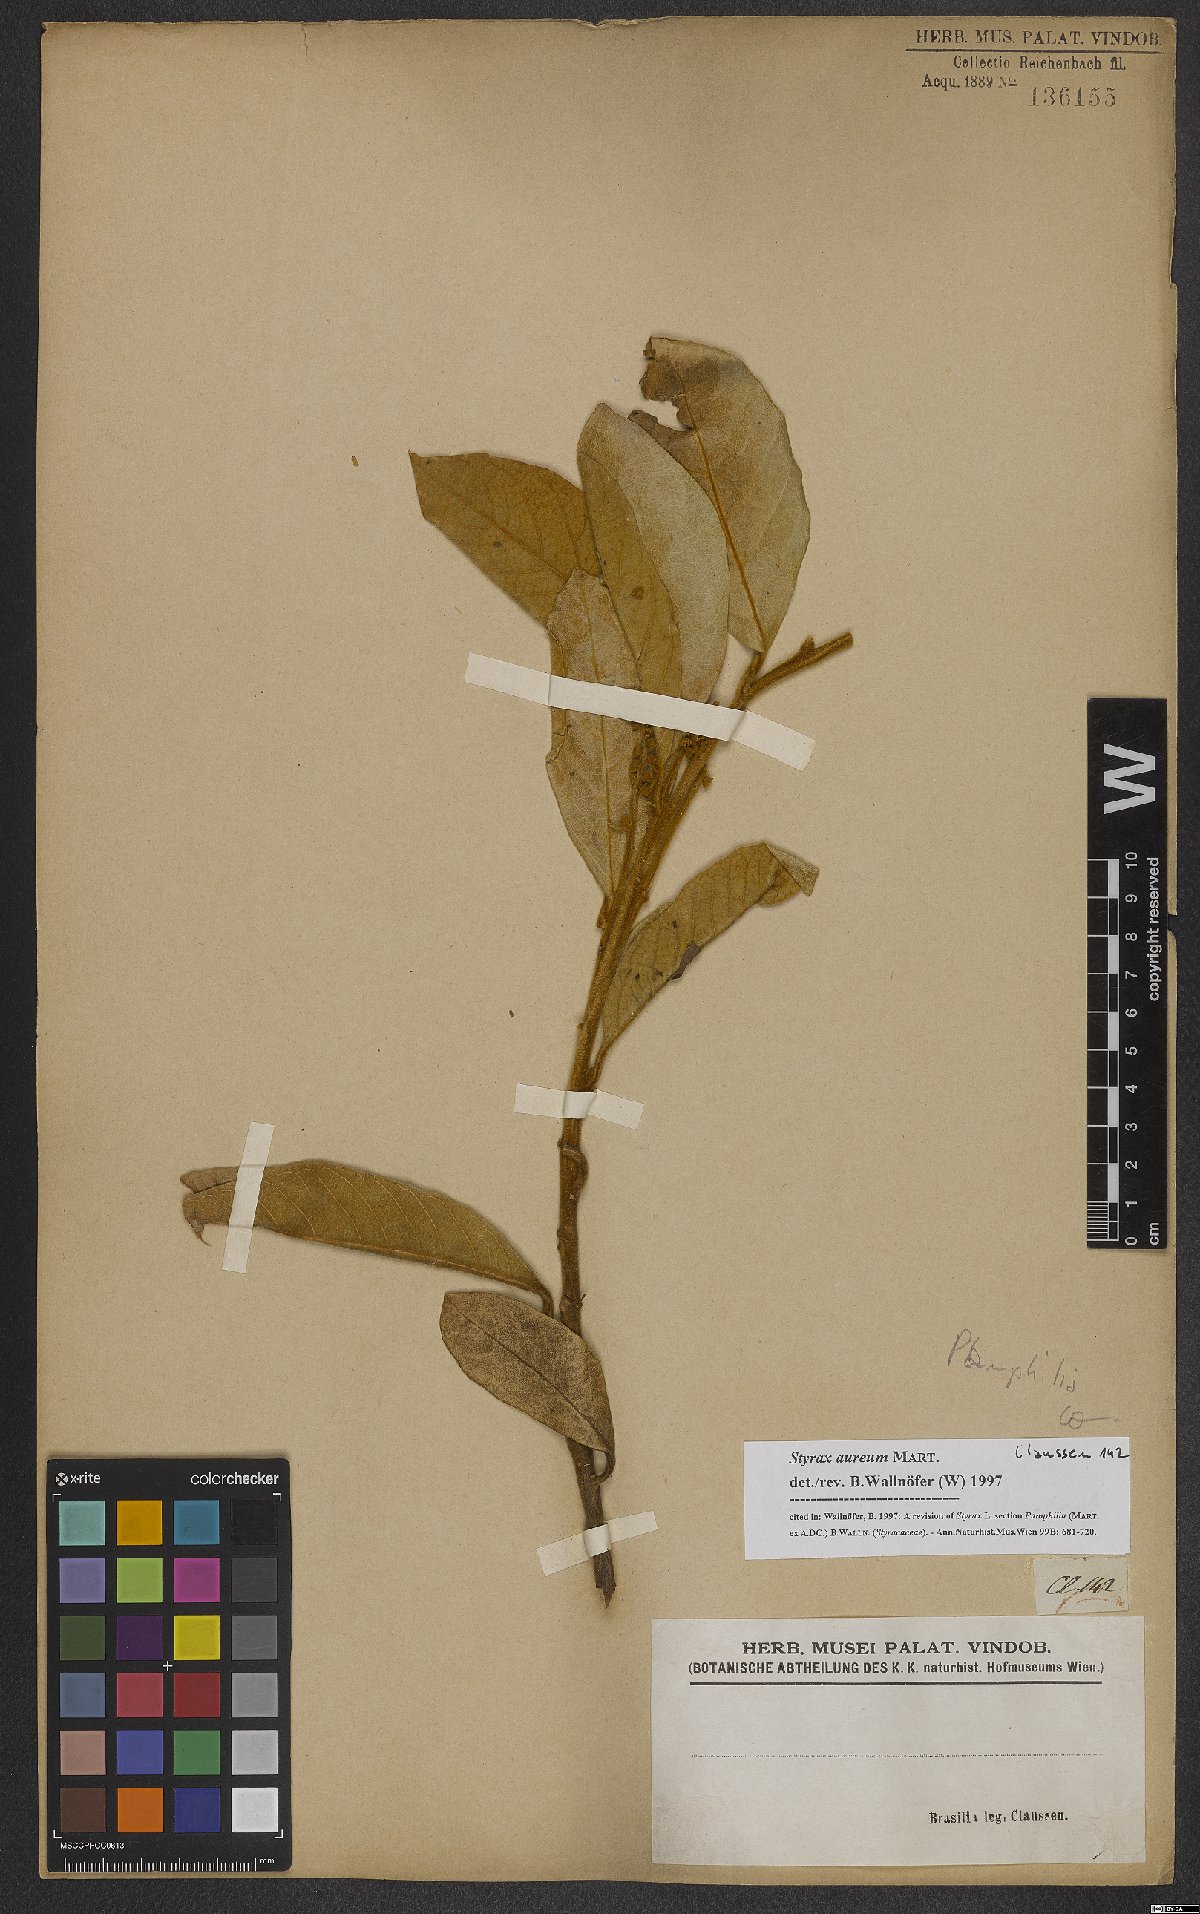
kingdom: Plantae
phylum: Tracheophyta
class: Magnoliopsida
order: Ericales
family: Styracaceae
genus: Styrax
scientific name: Styrax aureus
